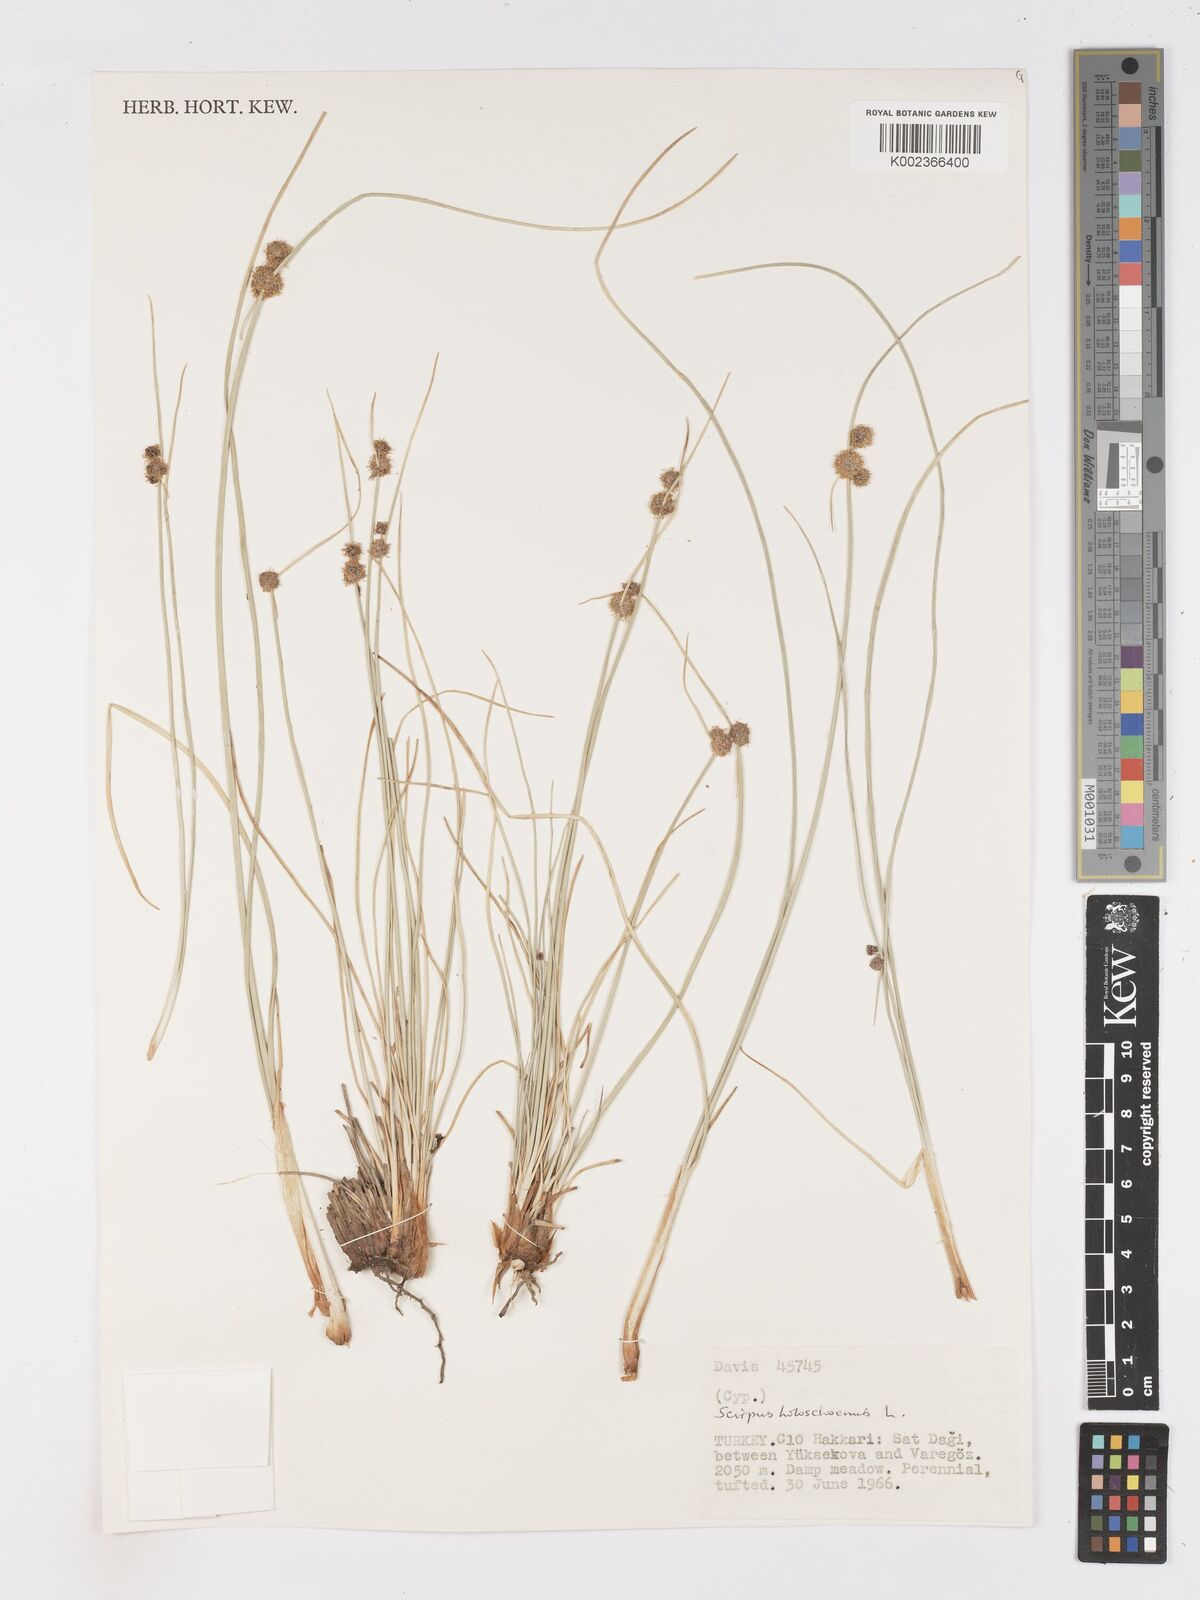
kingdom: Plantae
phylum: Tracheophyta
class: Liliopsida
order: Poales
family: Cyperaceae
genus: Scirpoides
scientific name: Scirpoides holoschoenus
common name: Round-headed club-rush
